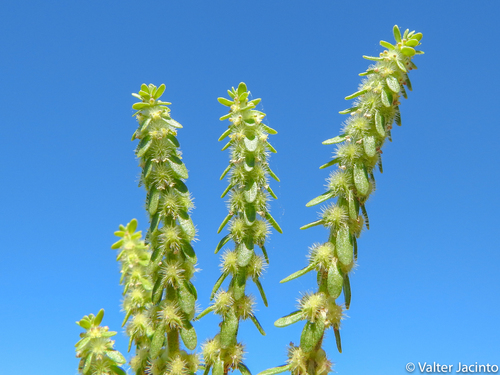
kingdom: Plantae
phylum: Tracheophyta
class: Magnoliopsida
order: Gentianales
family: Rubiaceae
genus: Valantia
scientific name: Valantia hispida
